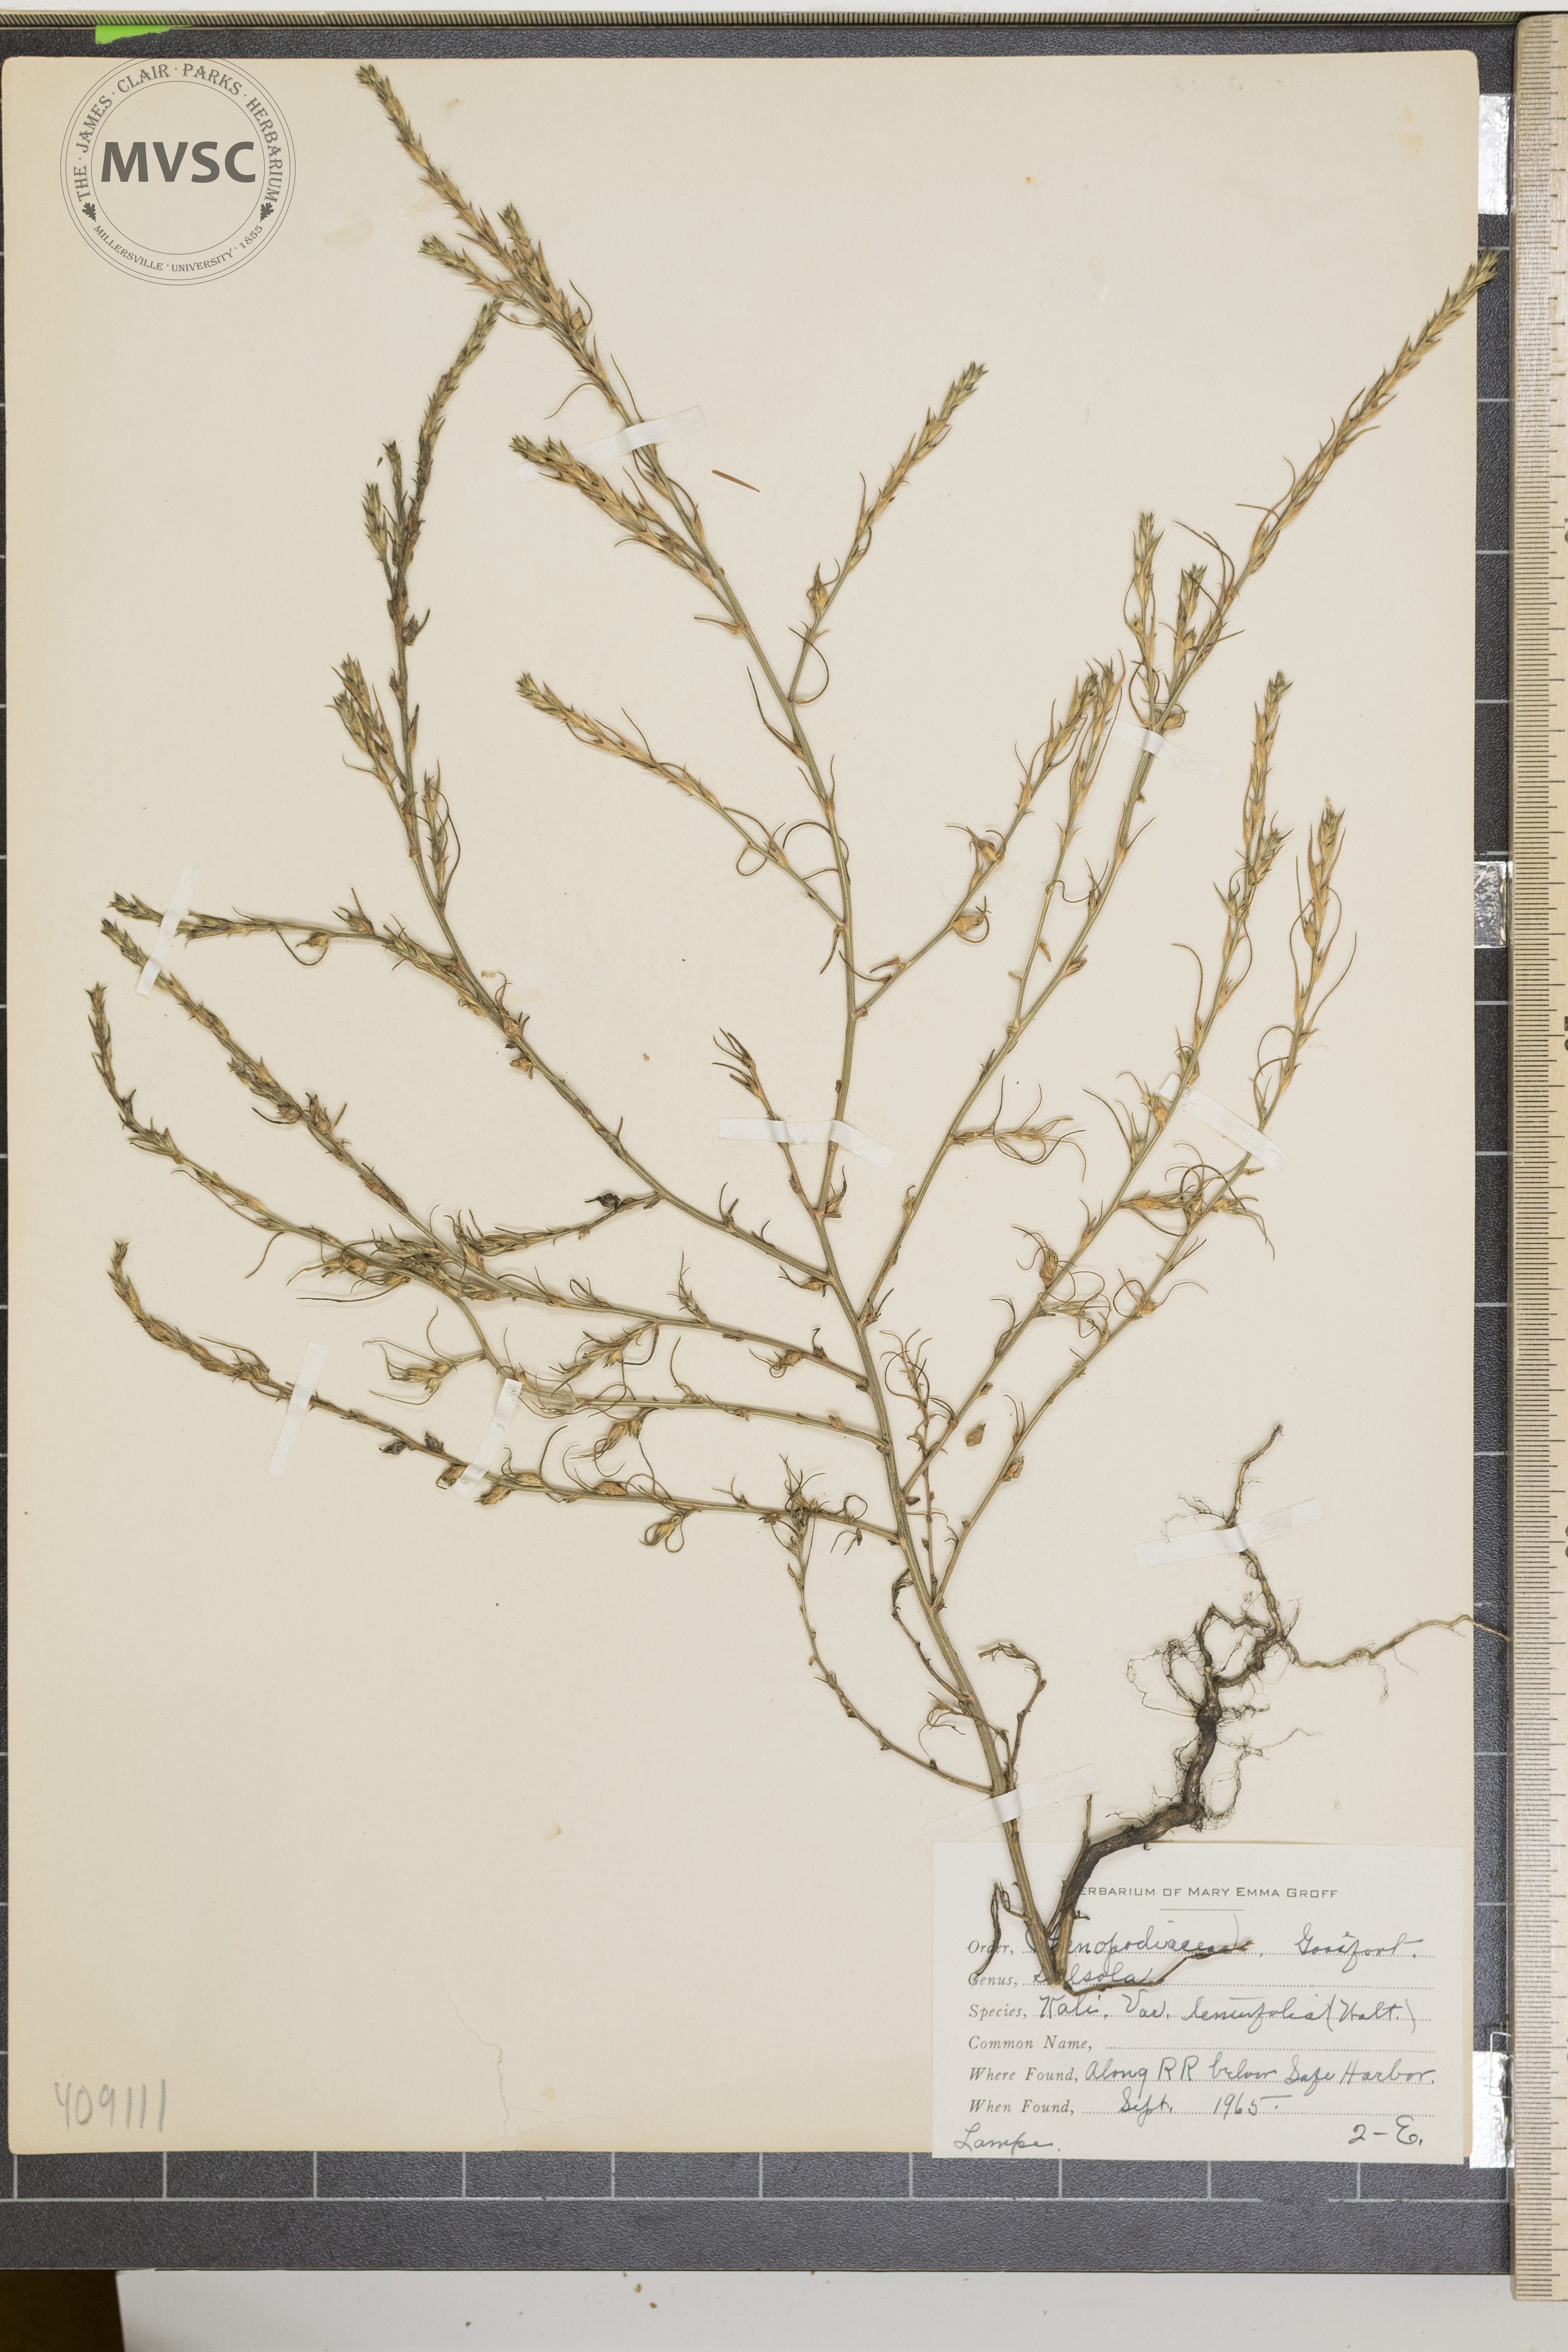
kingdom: Plantae
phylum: Tracheophyta
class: Magnoliopsida
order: Caryophyllales
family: Amaranthaceae
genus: Salsola
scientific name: Salsola tragus
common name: Prickly russian thistle
